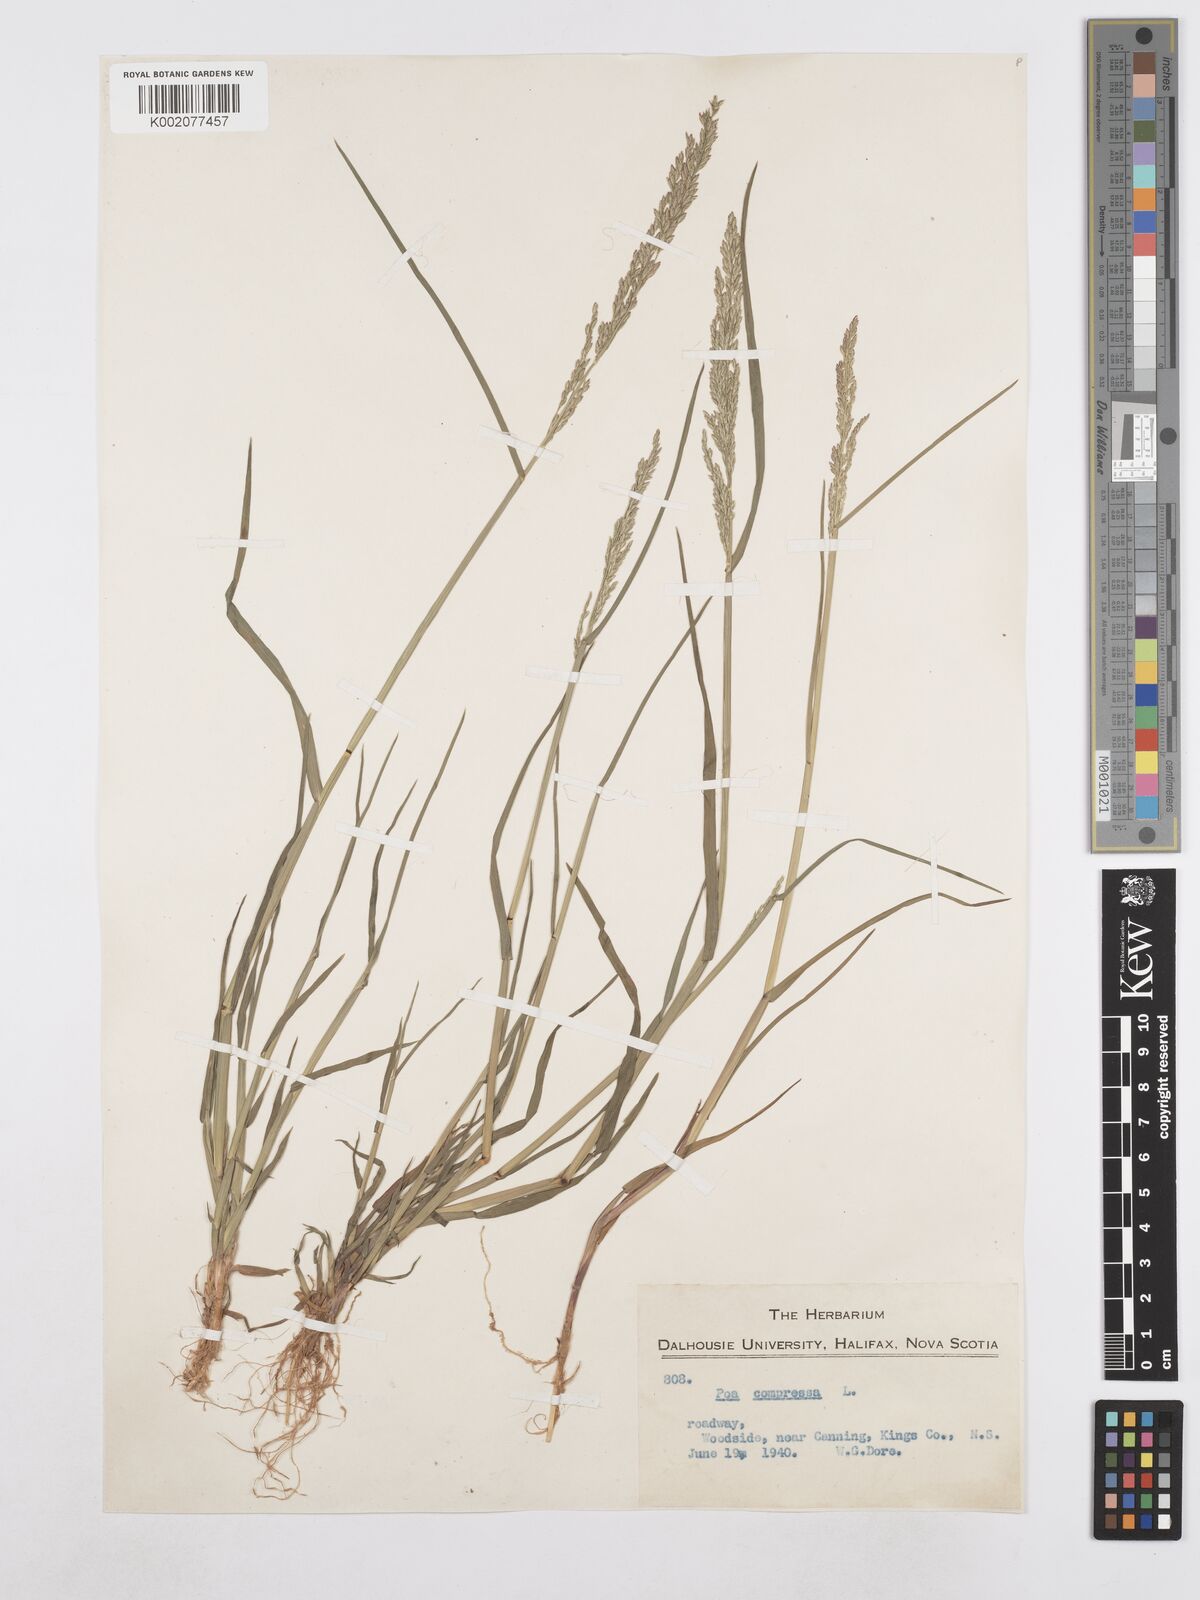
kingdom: Plantae
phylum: Tracheophyta
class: Liliopsida
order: Poales
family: Poaceae
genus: Poa
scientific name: Poa compressa
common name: Canada bluegrass
